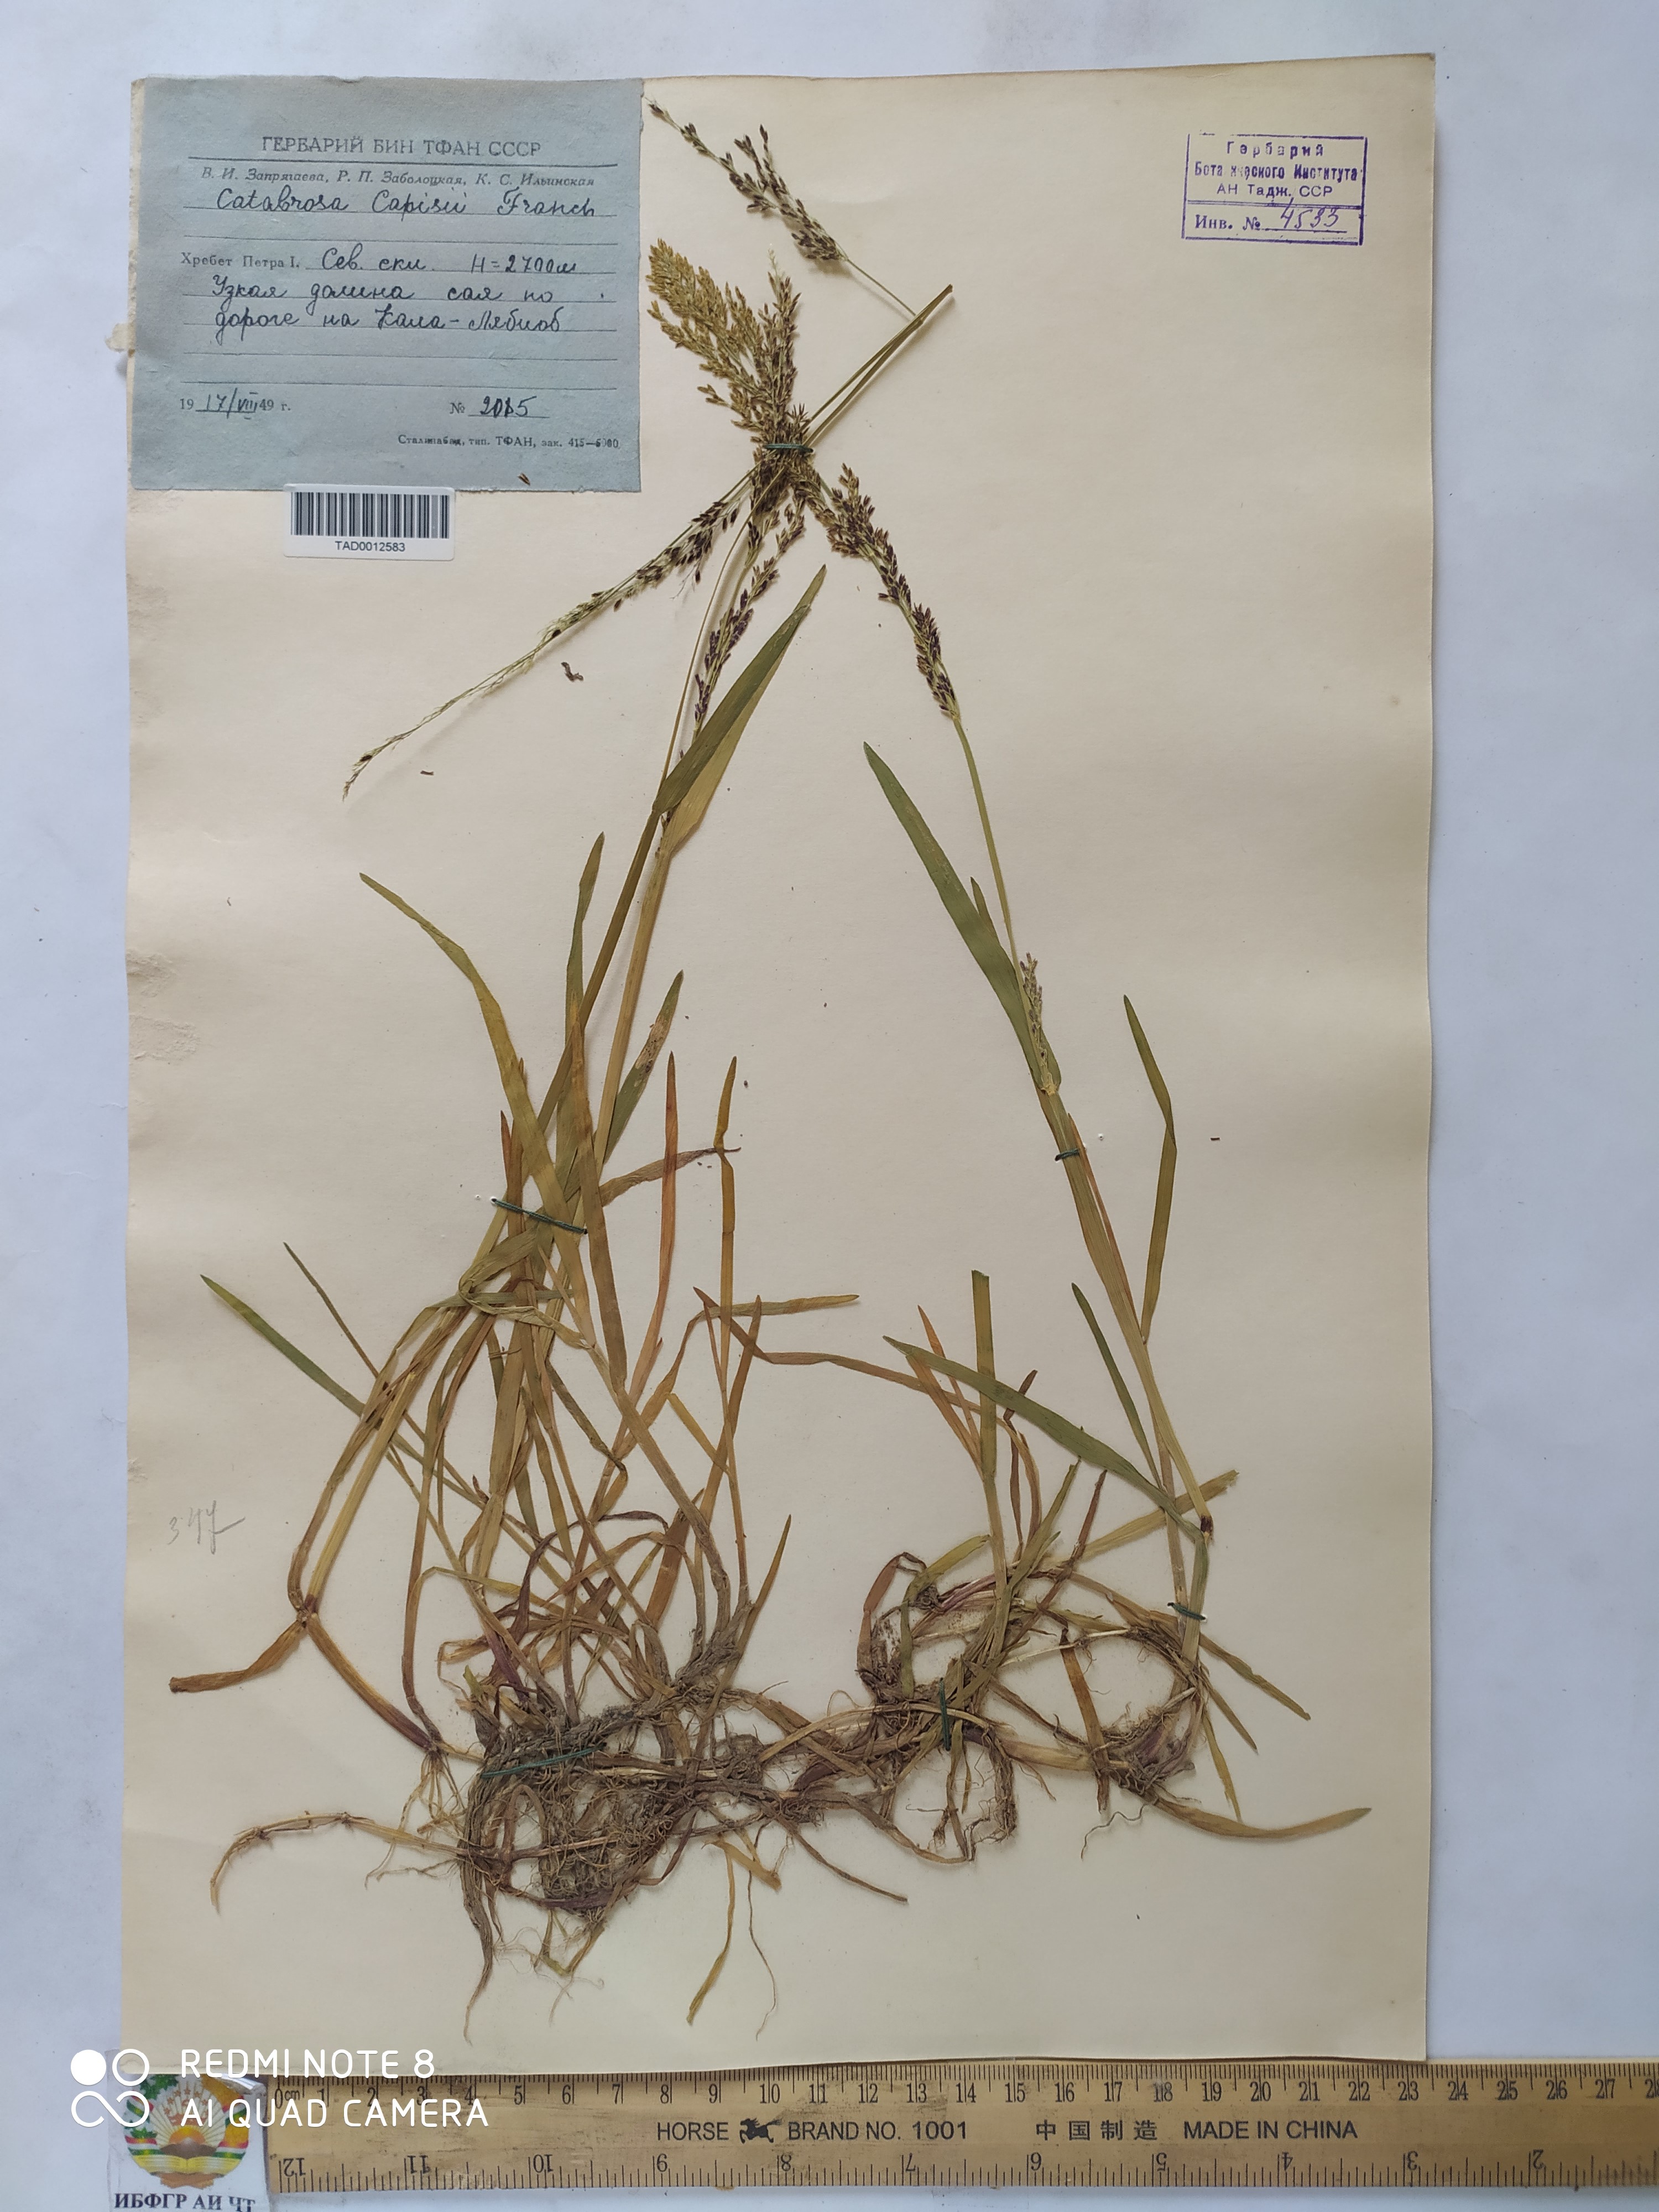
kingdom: Plantae
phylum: Tracheophyta
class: Liliopsida
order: Poales
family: Poaceae
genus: Catabrosa
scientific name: Catabrosa aquatica
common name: Whorl-grass
